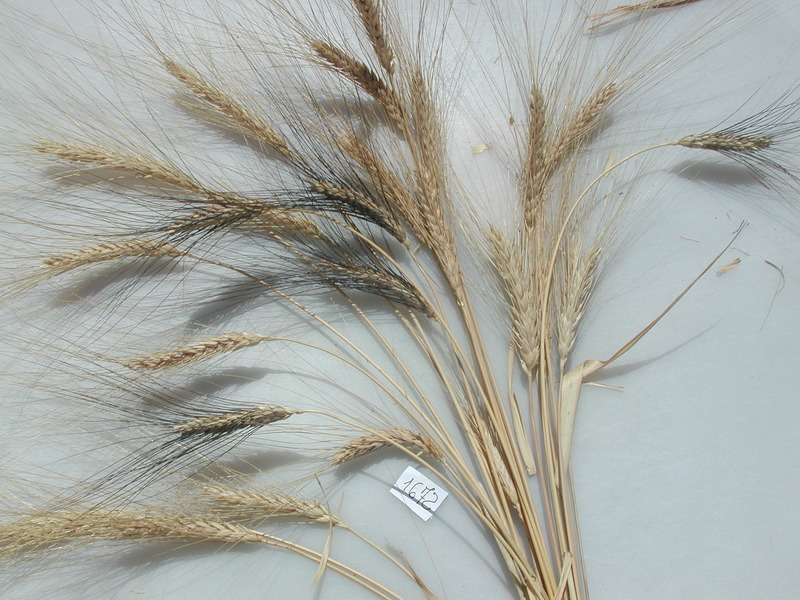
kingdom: Plantae
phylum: Tracheophyta
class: Liliopsida
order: Poales
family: Poaceae
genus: Triticum
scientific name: Triticum turgidum
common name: Wheat
